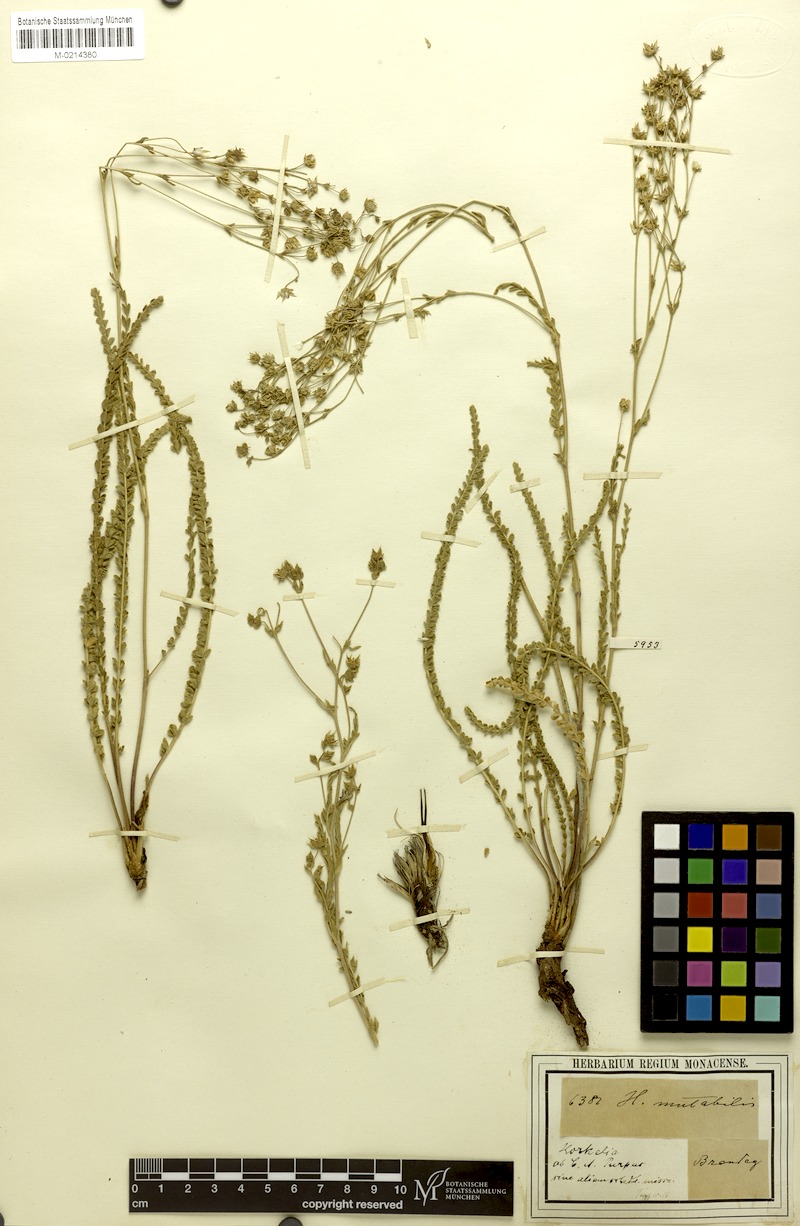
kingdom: Plantae
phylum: Tracheophyta
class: Magnoliopsida
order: Rosales
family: Rosaceae
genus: Potentilla
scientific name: Potentilla sabulosa
